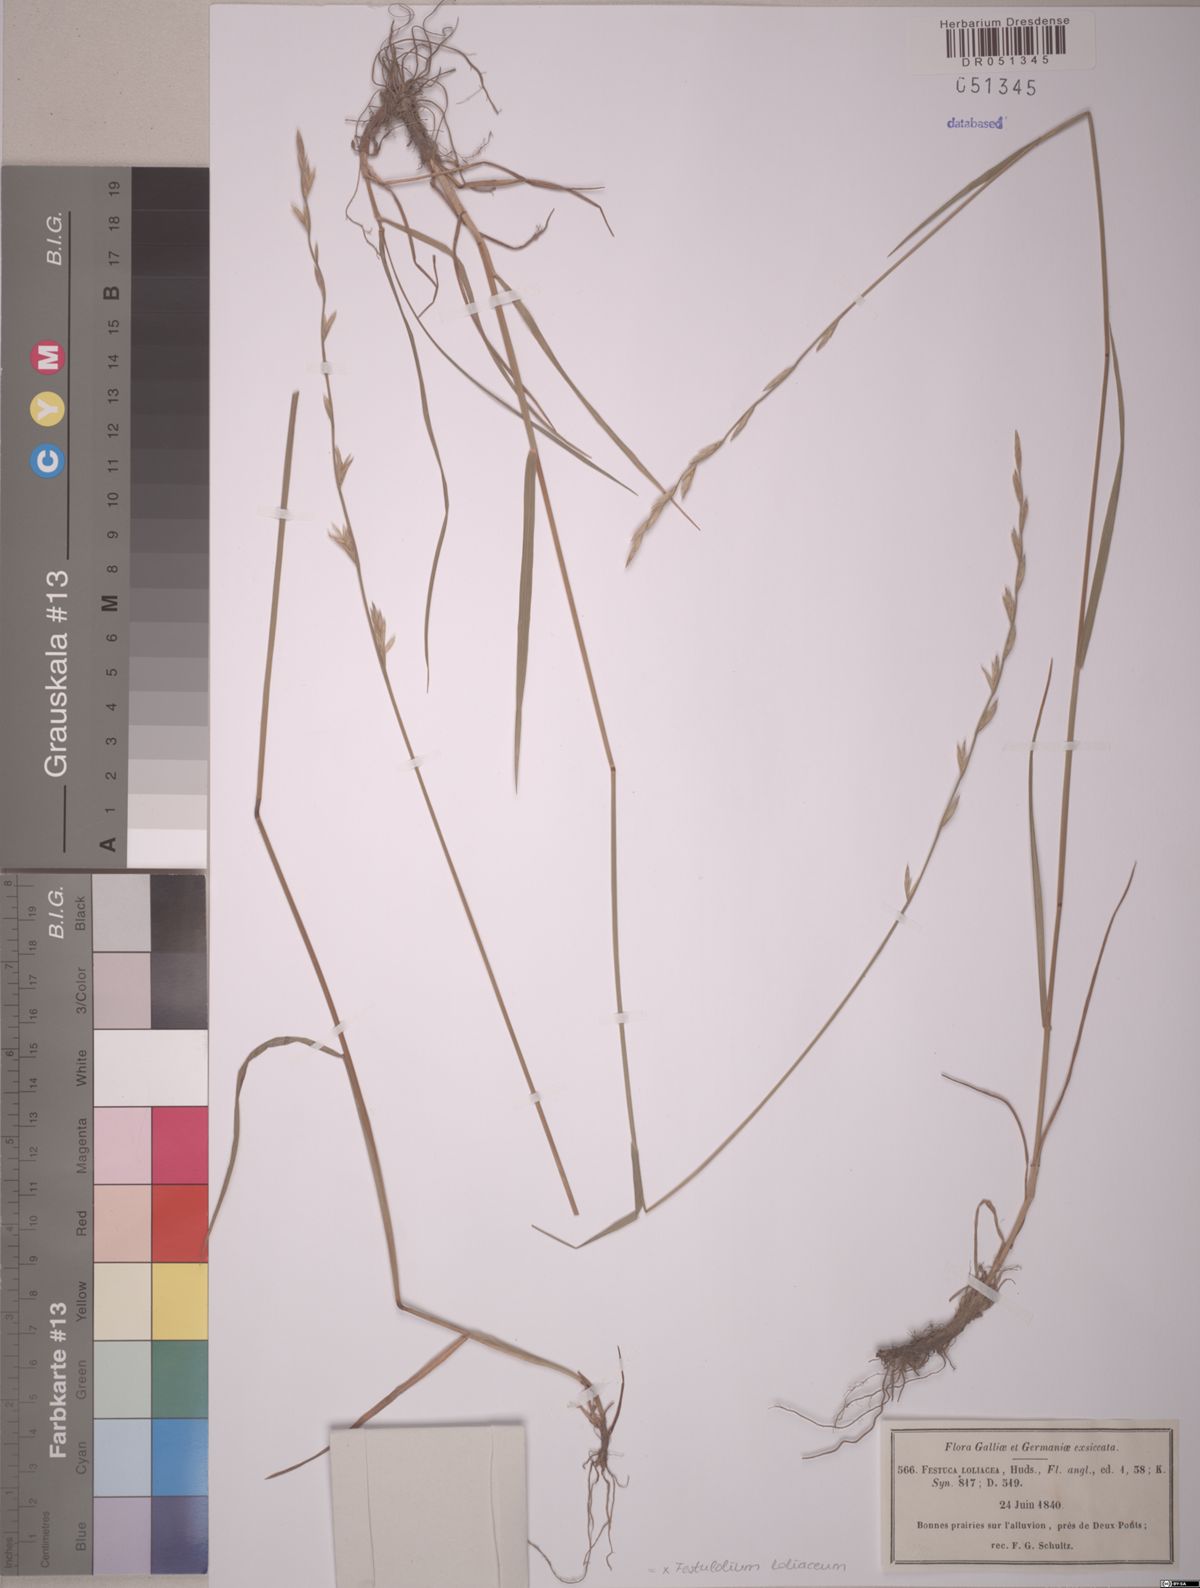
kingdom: Plantae
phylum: Tracheophyta
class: Liliopsida
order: Poales
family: Poaceae
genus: Lolium
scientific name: Lolium elongatum
